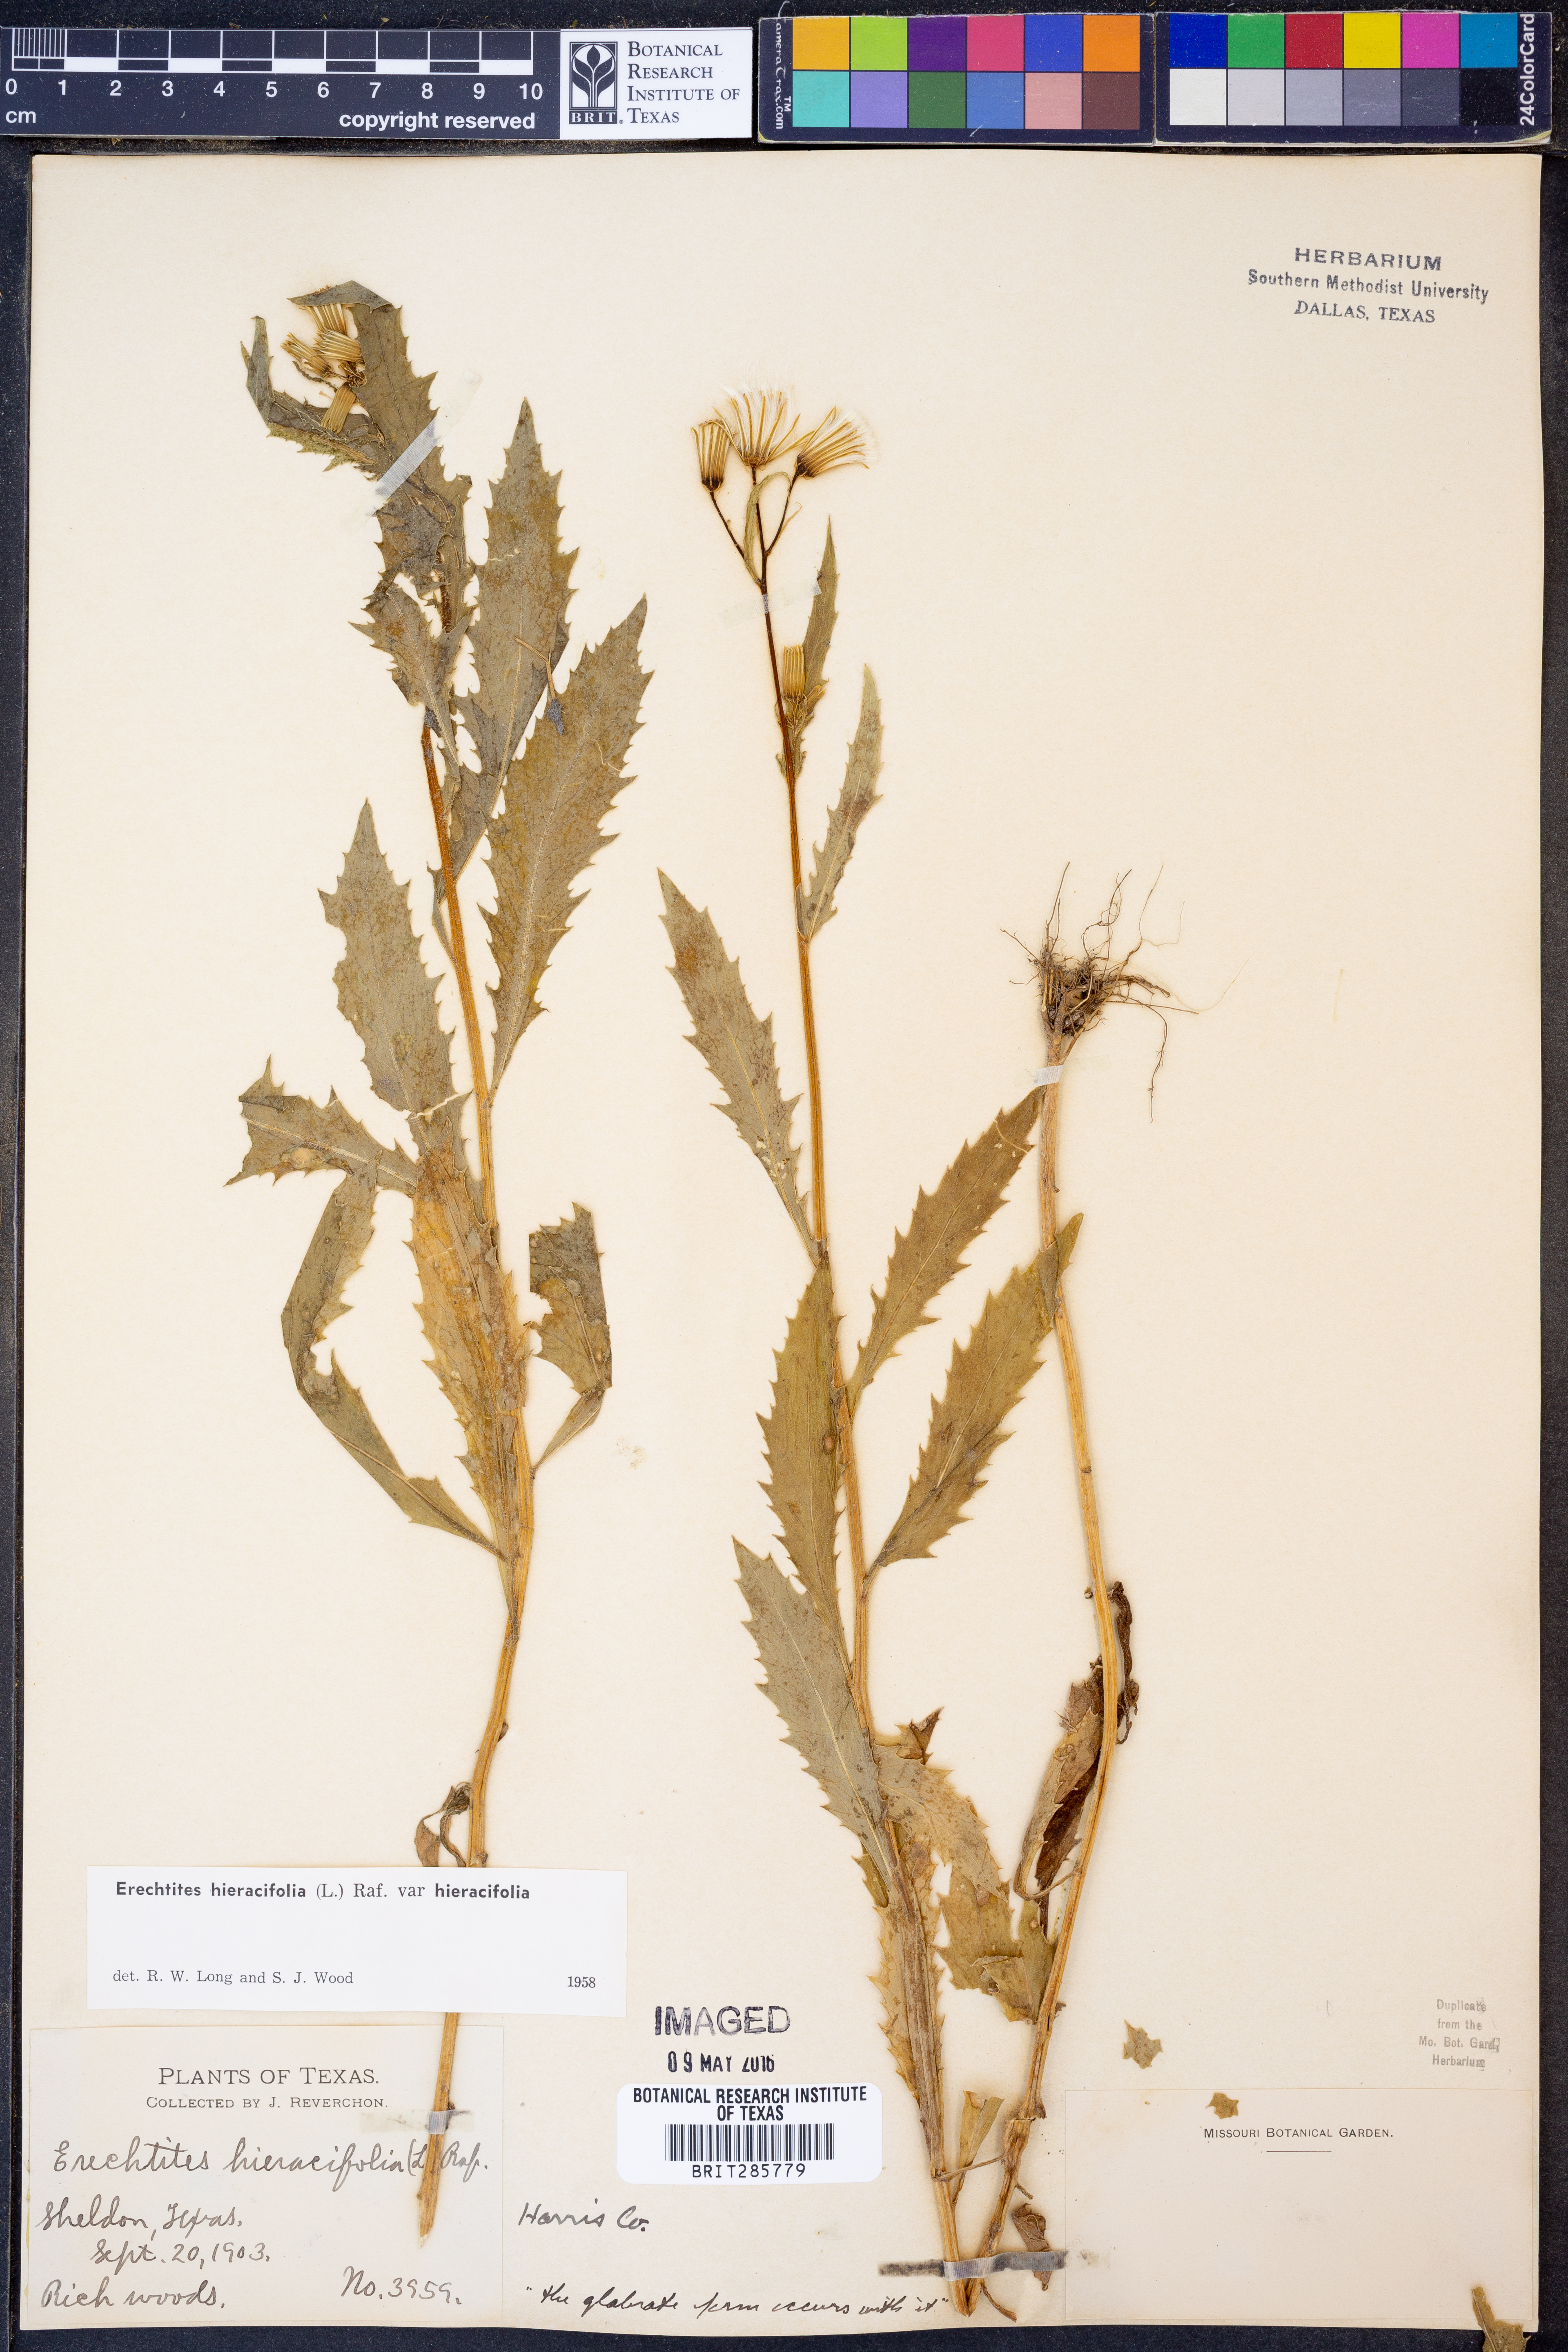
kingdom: Plantae
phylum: Tracheophyta
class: Magnoliopsida
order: Asterales
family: Asteraceae
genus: Erechtites
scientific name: Erechtites hieraciifolius
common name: American burnweed
